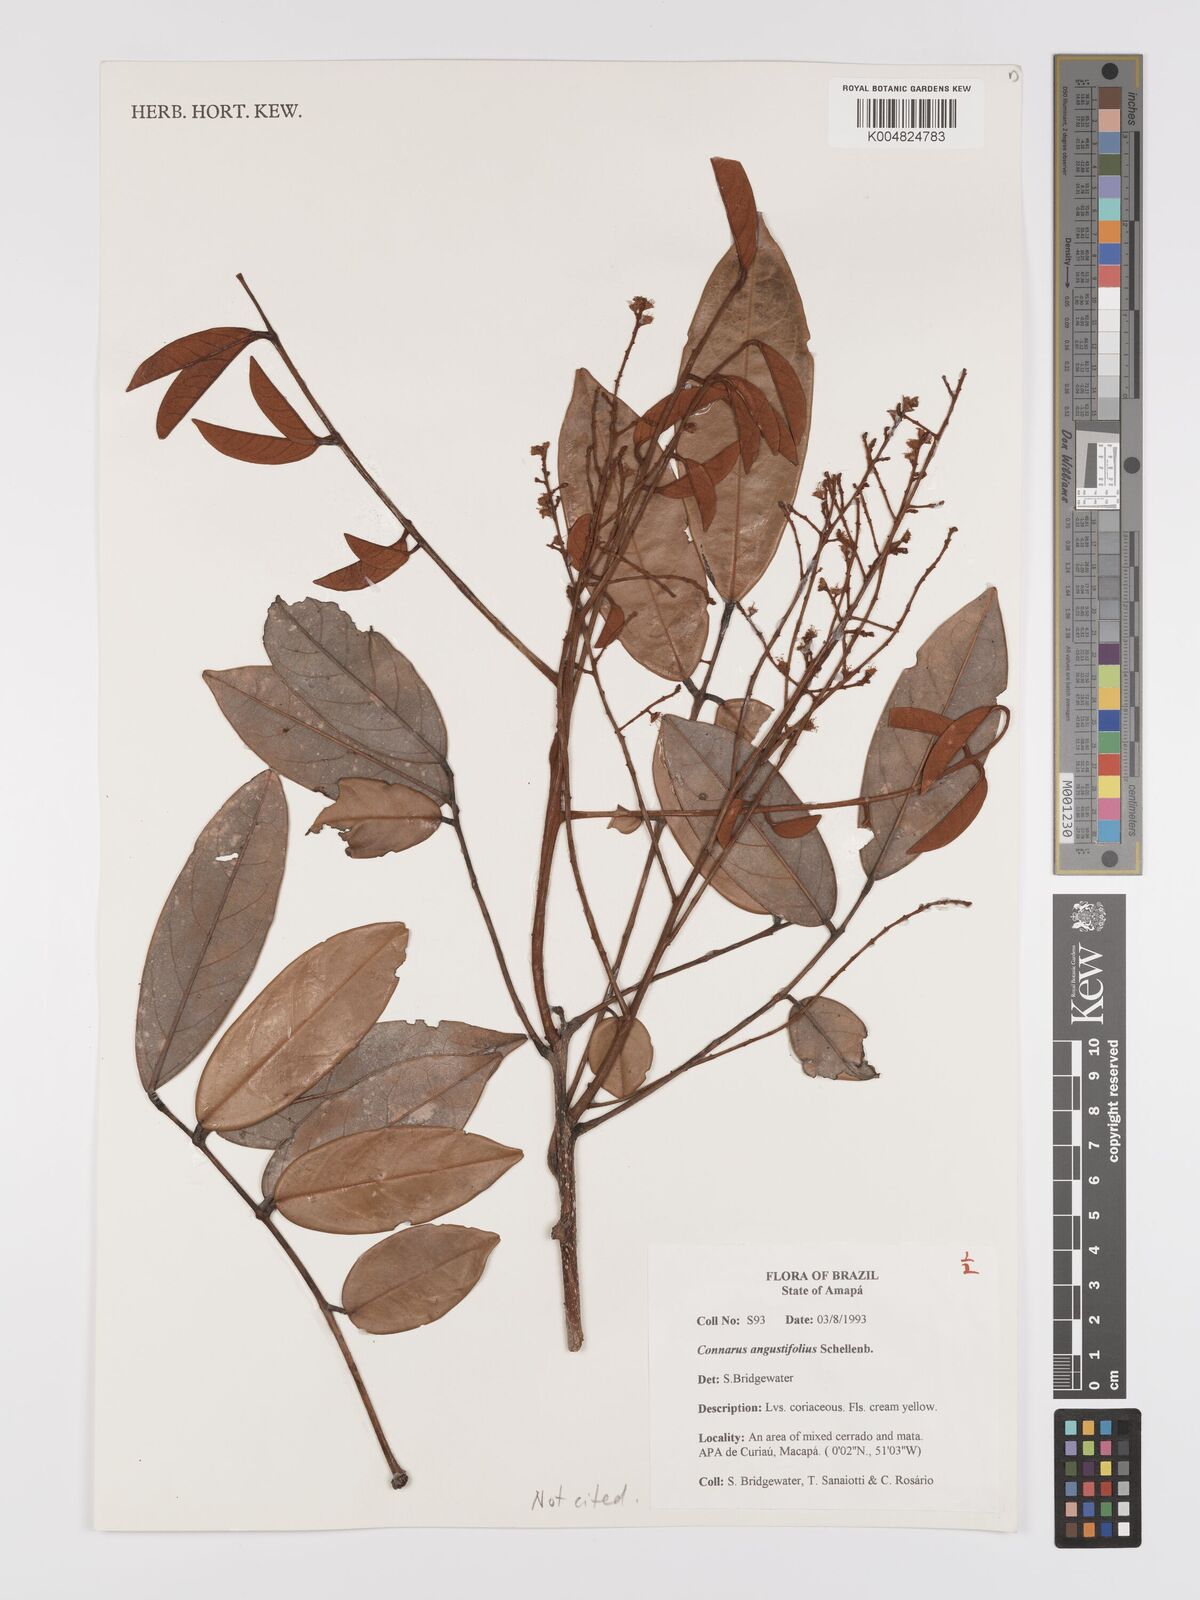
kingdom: Plantae
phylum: Tracheophyta
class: Magnoliopsida
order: Oxalidales
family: Connaraceae
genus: Connarus
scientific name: Connarus perrottetii
